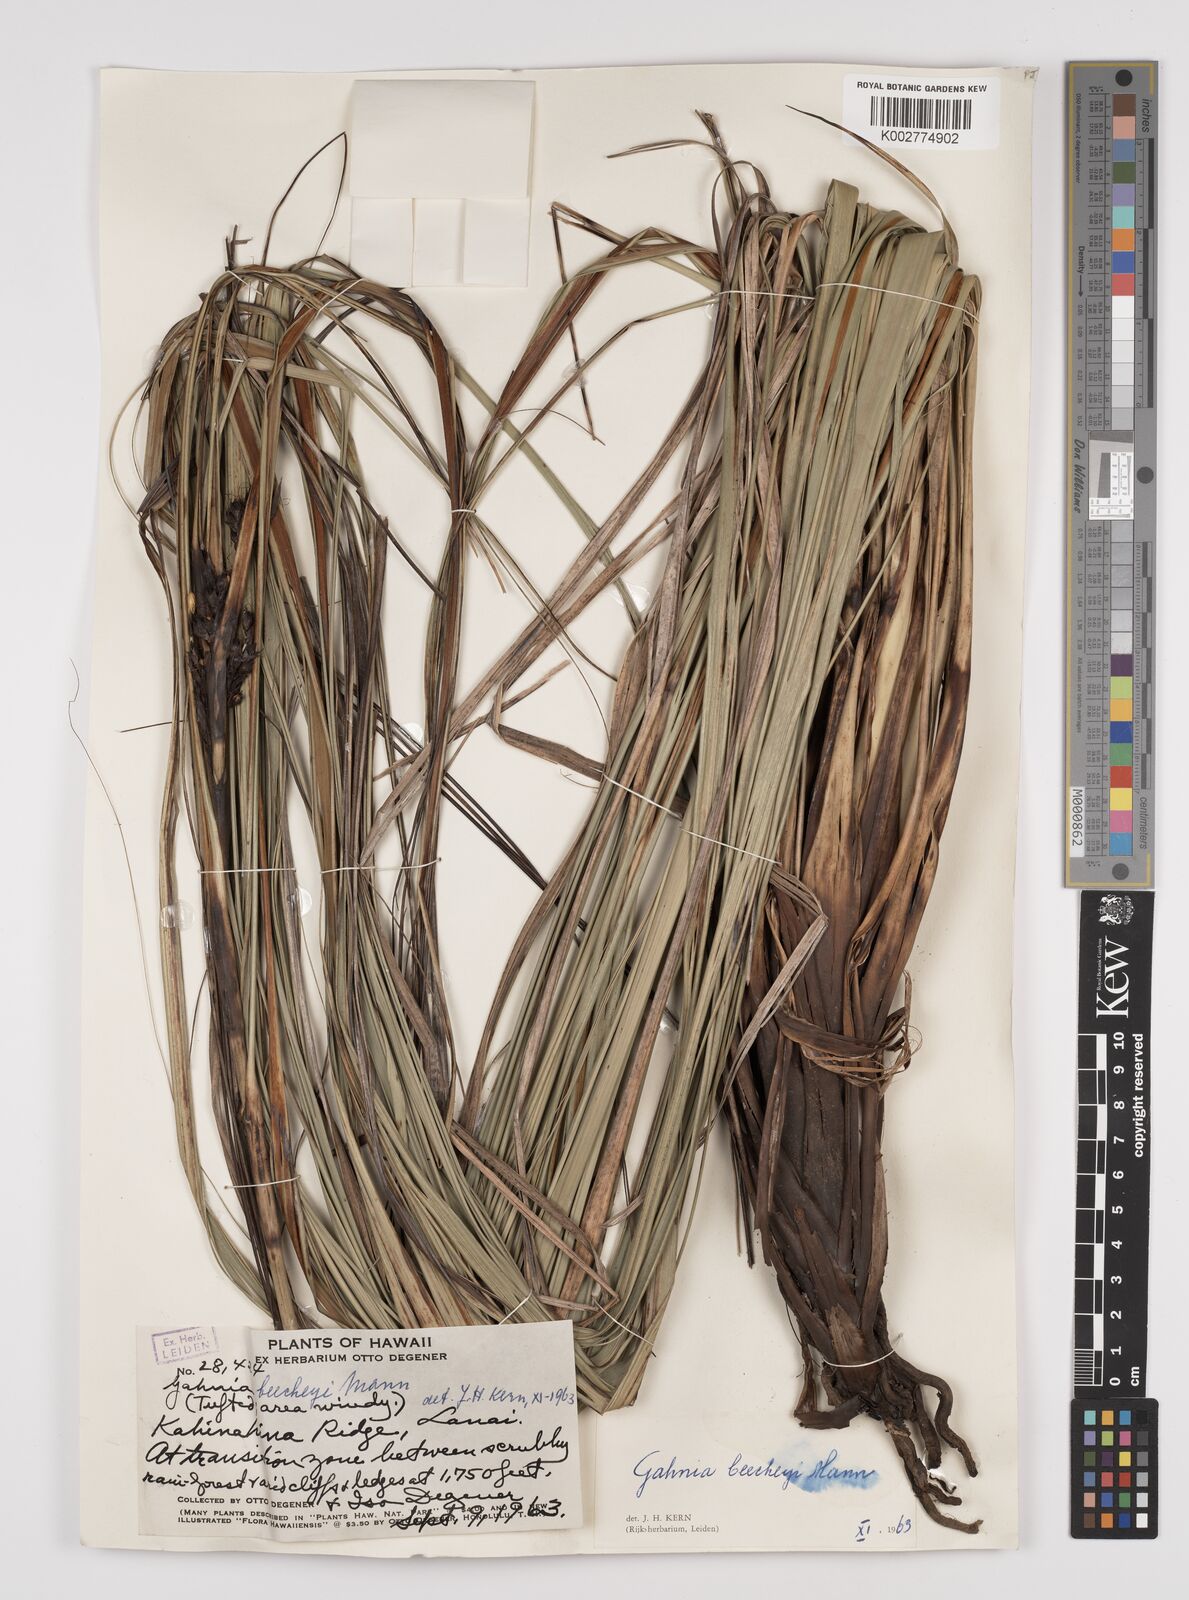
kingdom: Plantae
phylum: Tracheophyta
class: Liliopsida
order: Poales
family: Cyperaceae
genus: Gahnia
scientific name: Gahnia beecheyi
